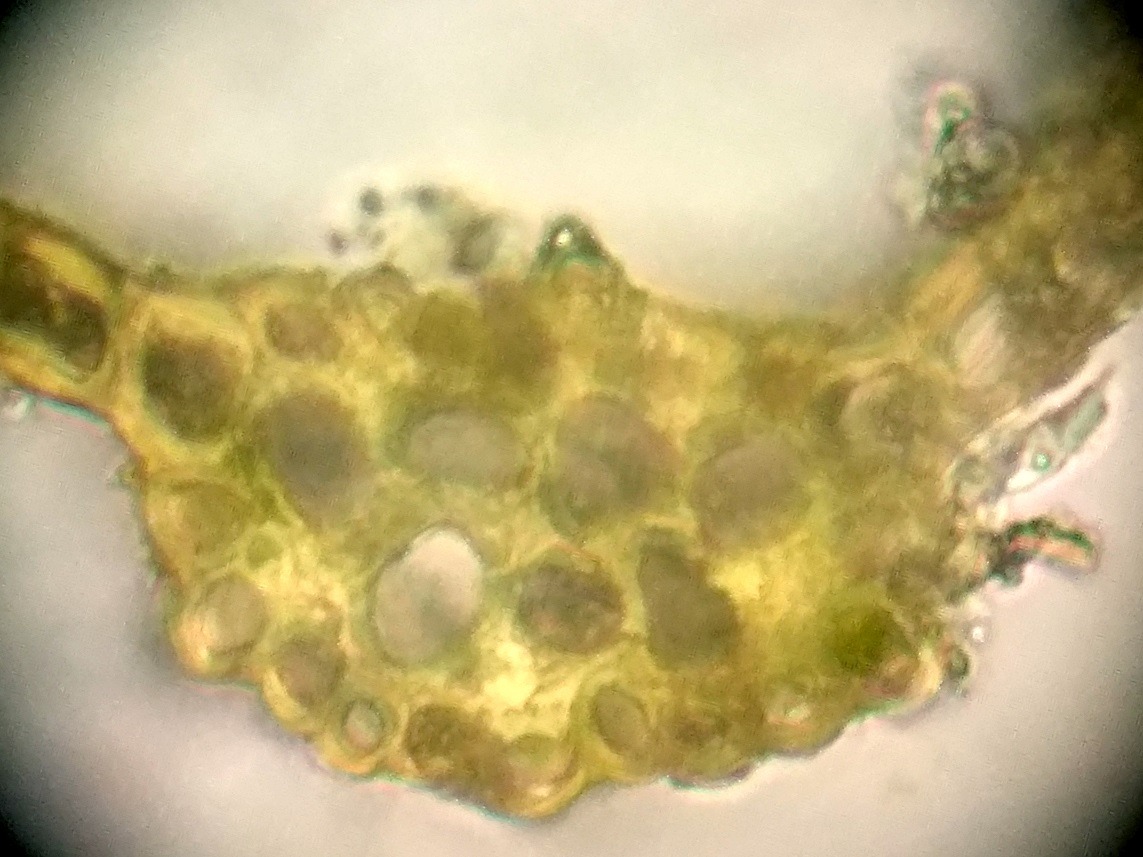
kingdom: Plantae
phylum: Bryophyta
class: Bryopsida
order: Dicranales
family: Dicranaceae
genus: Dicranum
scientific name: Dicranum majus
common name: Stor kløvtand
